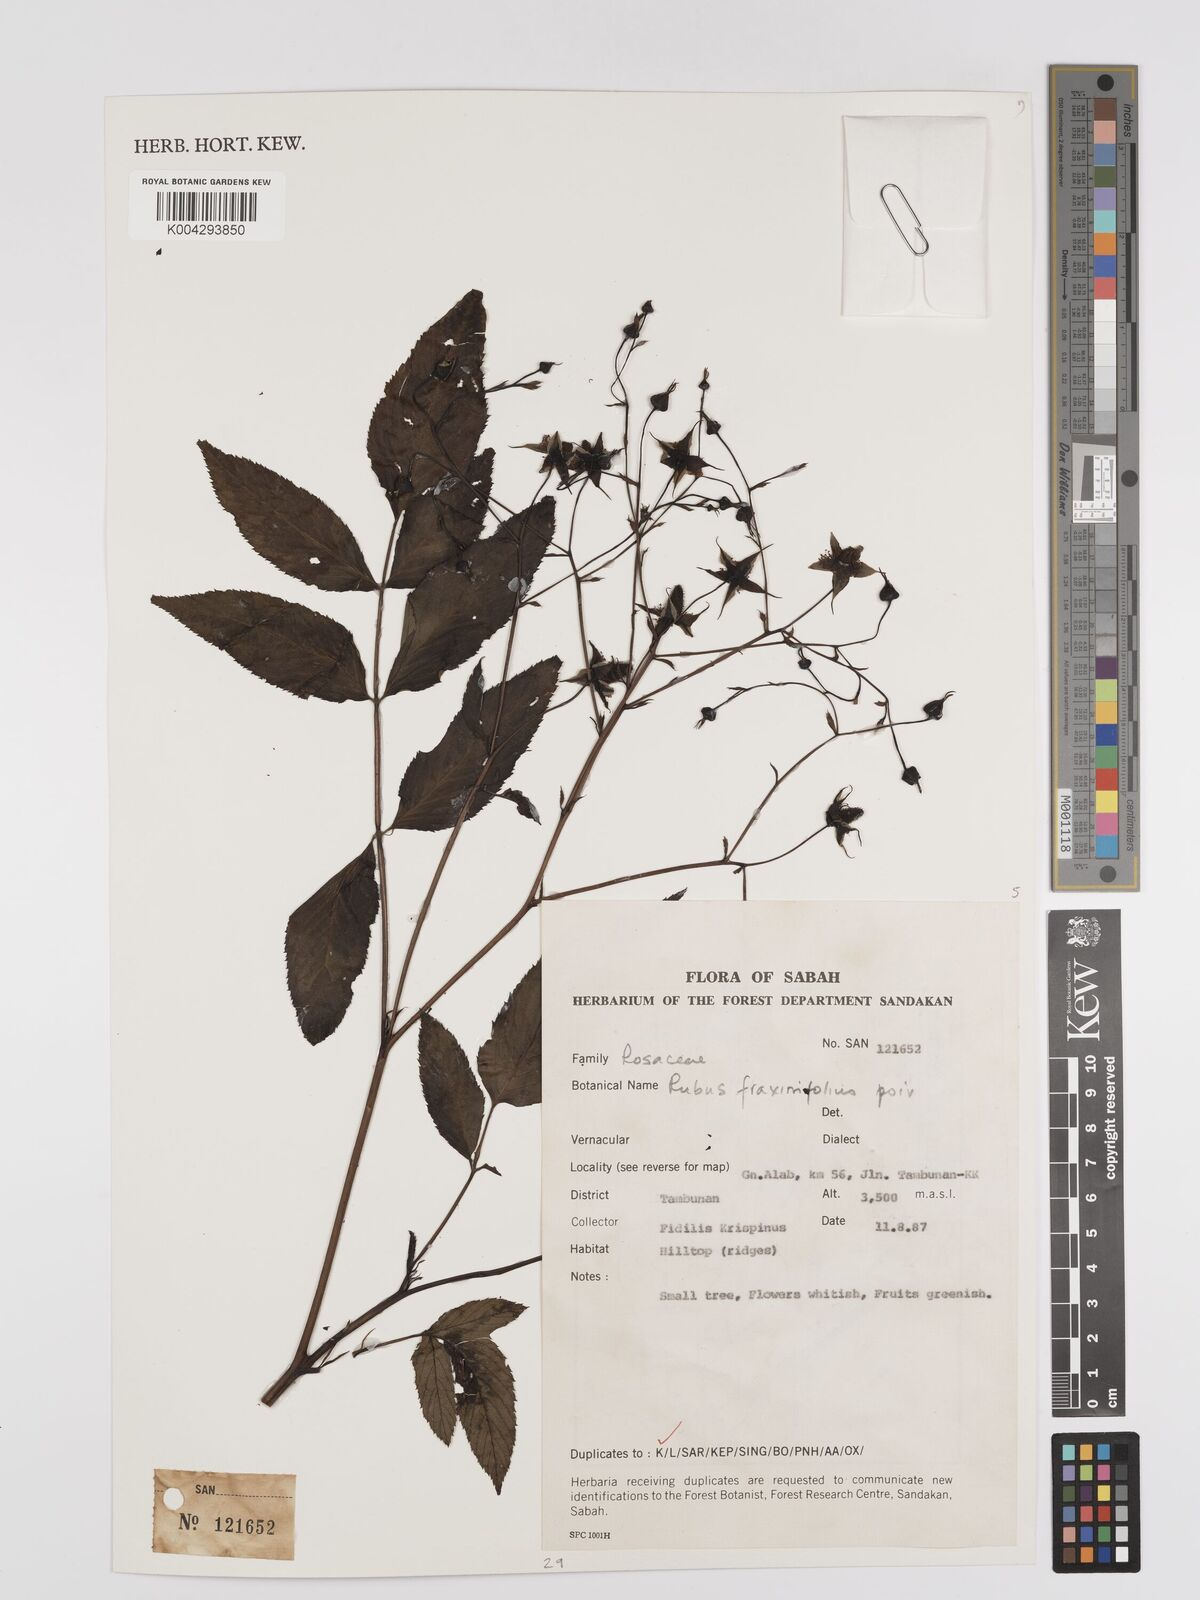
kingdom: Plantae
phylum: Tracheophyta
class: Magnoliopsida
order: Rosales
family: Rosaceae
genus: Rubus
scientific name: Rubus fraxinifolius
